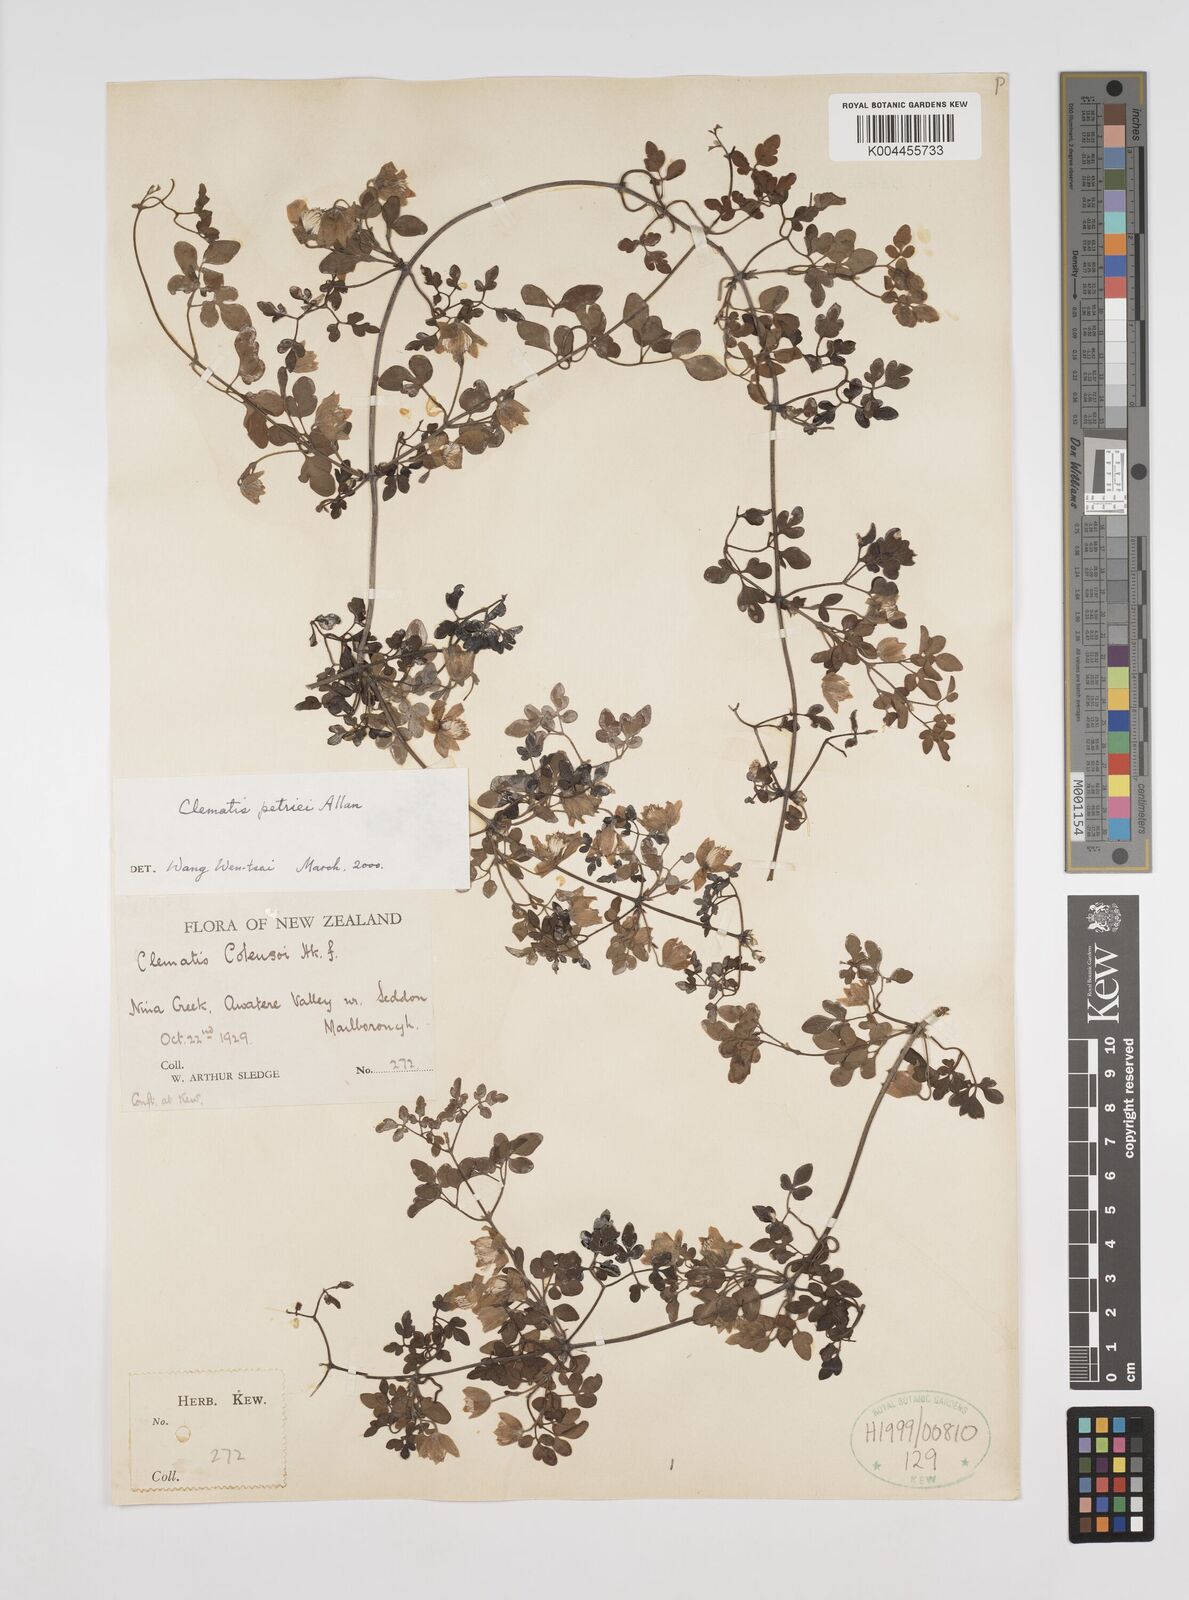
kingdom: Plantae
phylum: Tracheophyta
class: Magnoliopsida
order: Ranunculales
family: Ranunculaceae
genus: Clematis
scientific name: Clematis petriei
